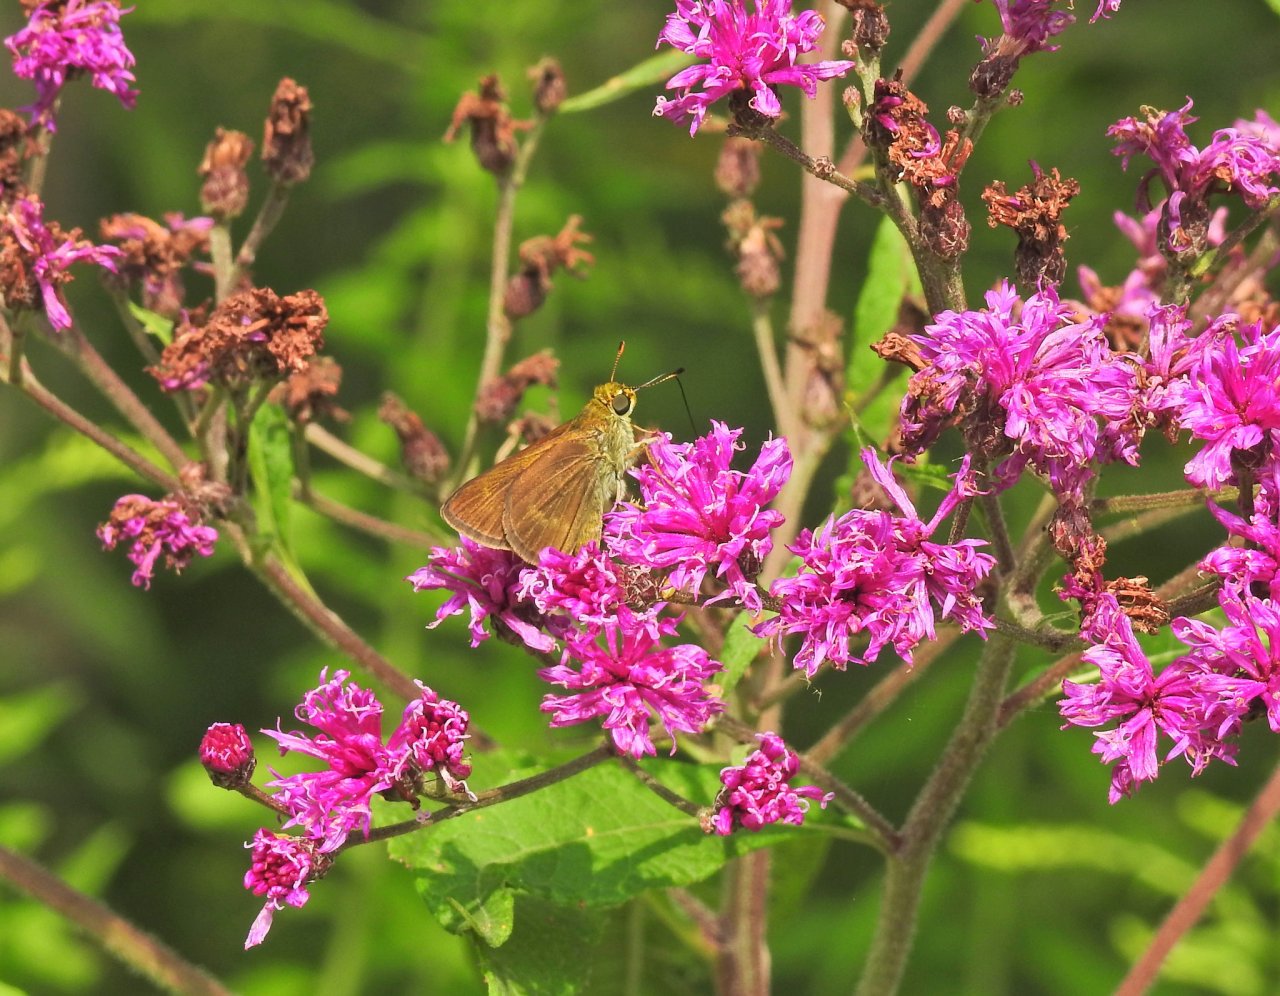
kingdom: Animalia
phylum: Arthropoda
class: Insecta
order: Lepidoptera
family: Hesperiidae
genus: Euphyes
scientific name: Euphyes vestris
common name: Dun Skipper
